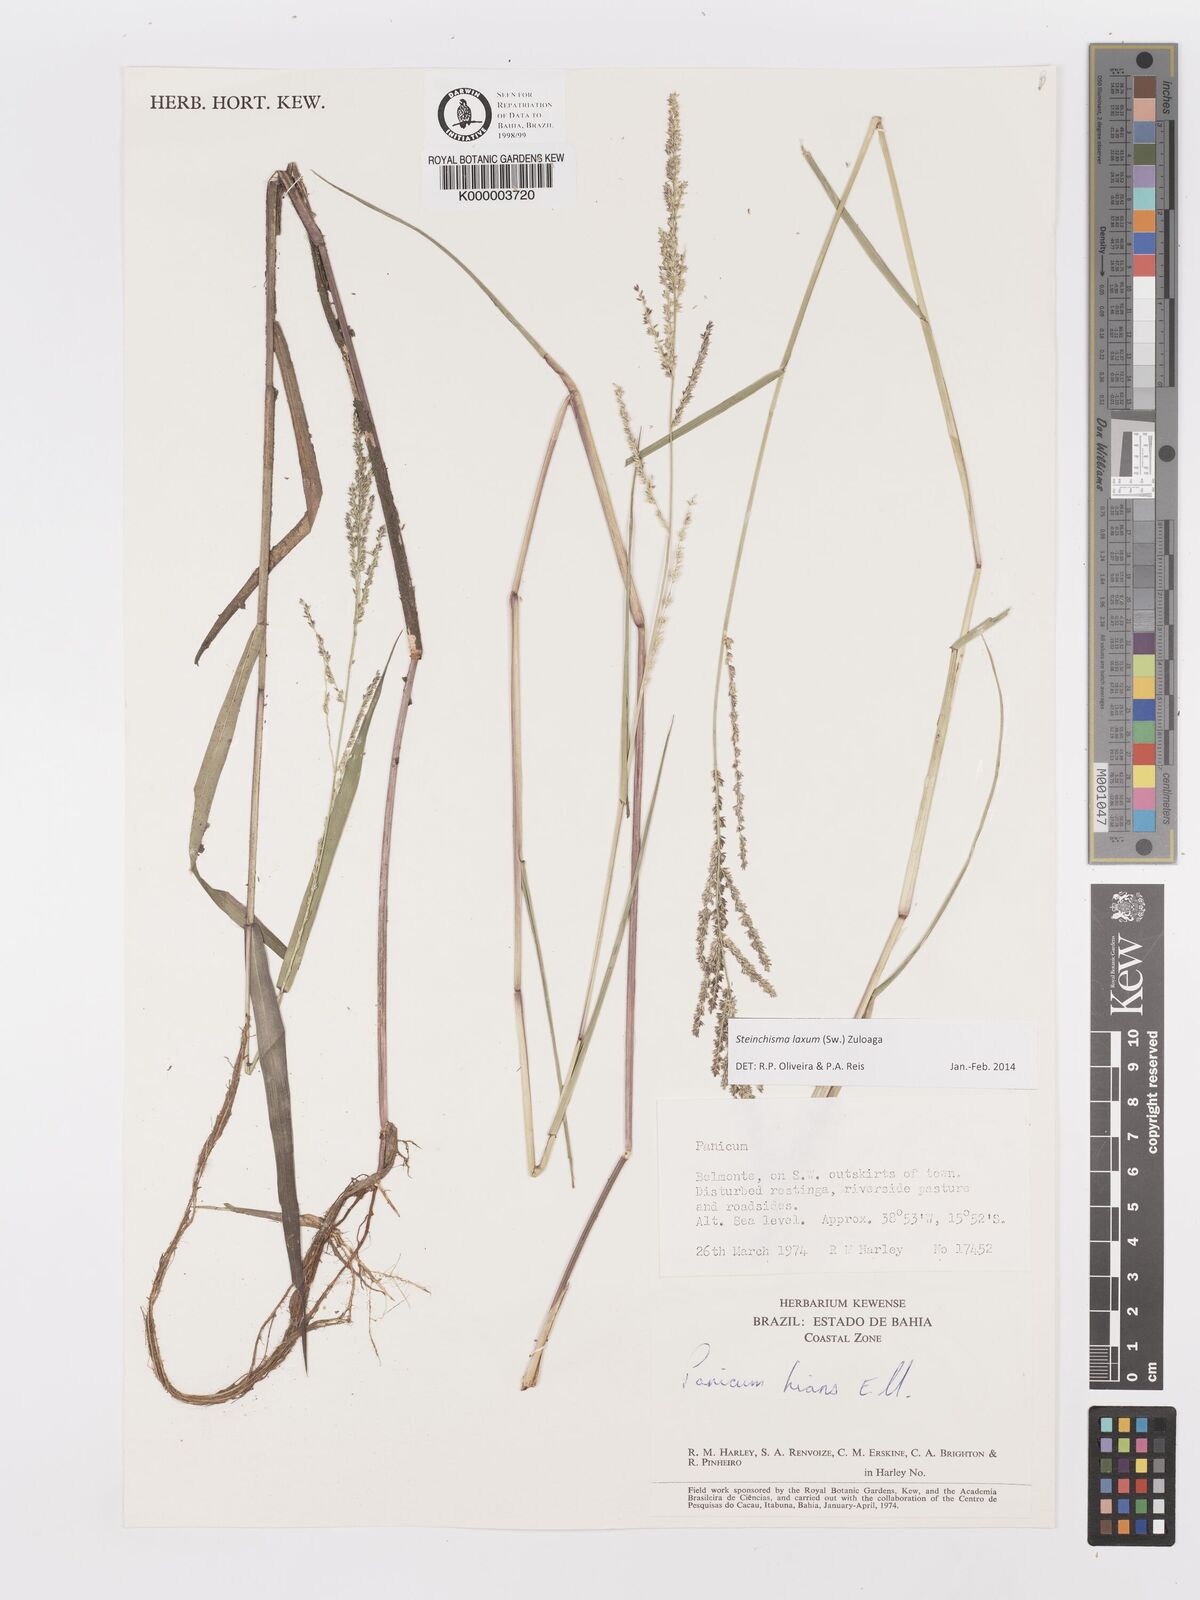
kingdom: Plantae
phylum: Tracheophyta
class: Liliopsida
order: Poales
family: Poaceae
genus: Panicum
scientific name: Panicum
